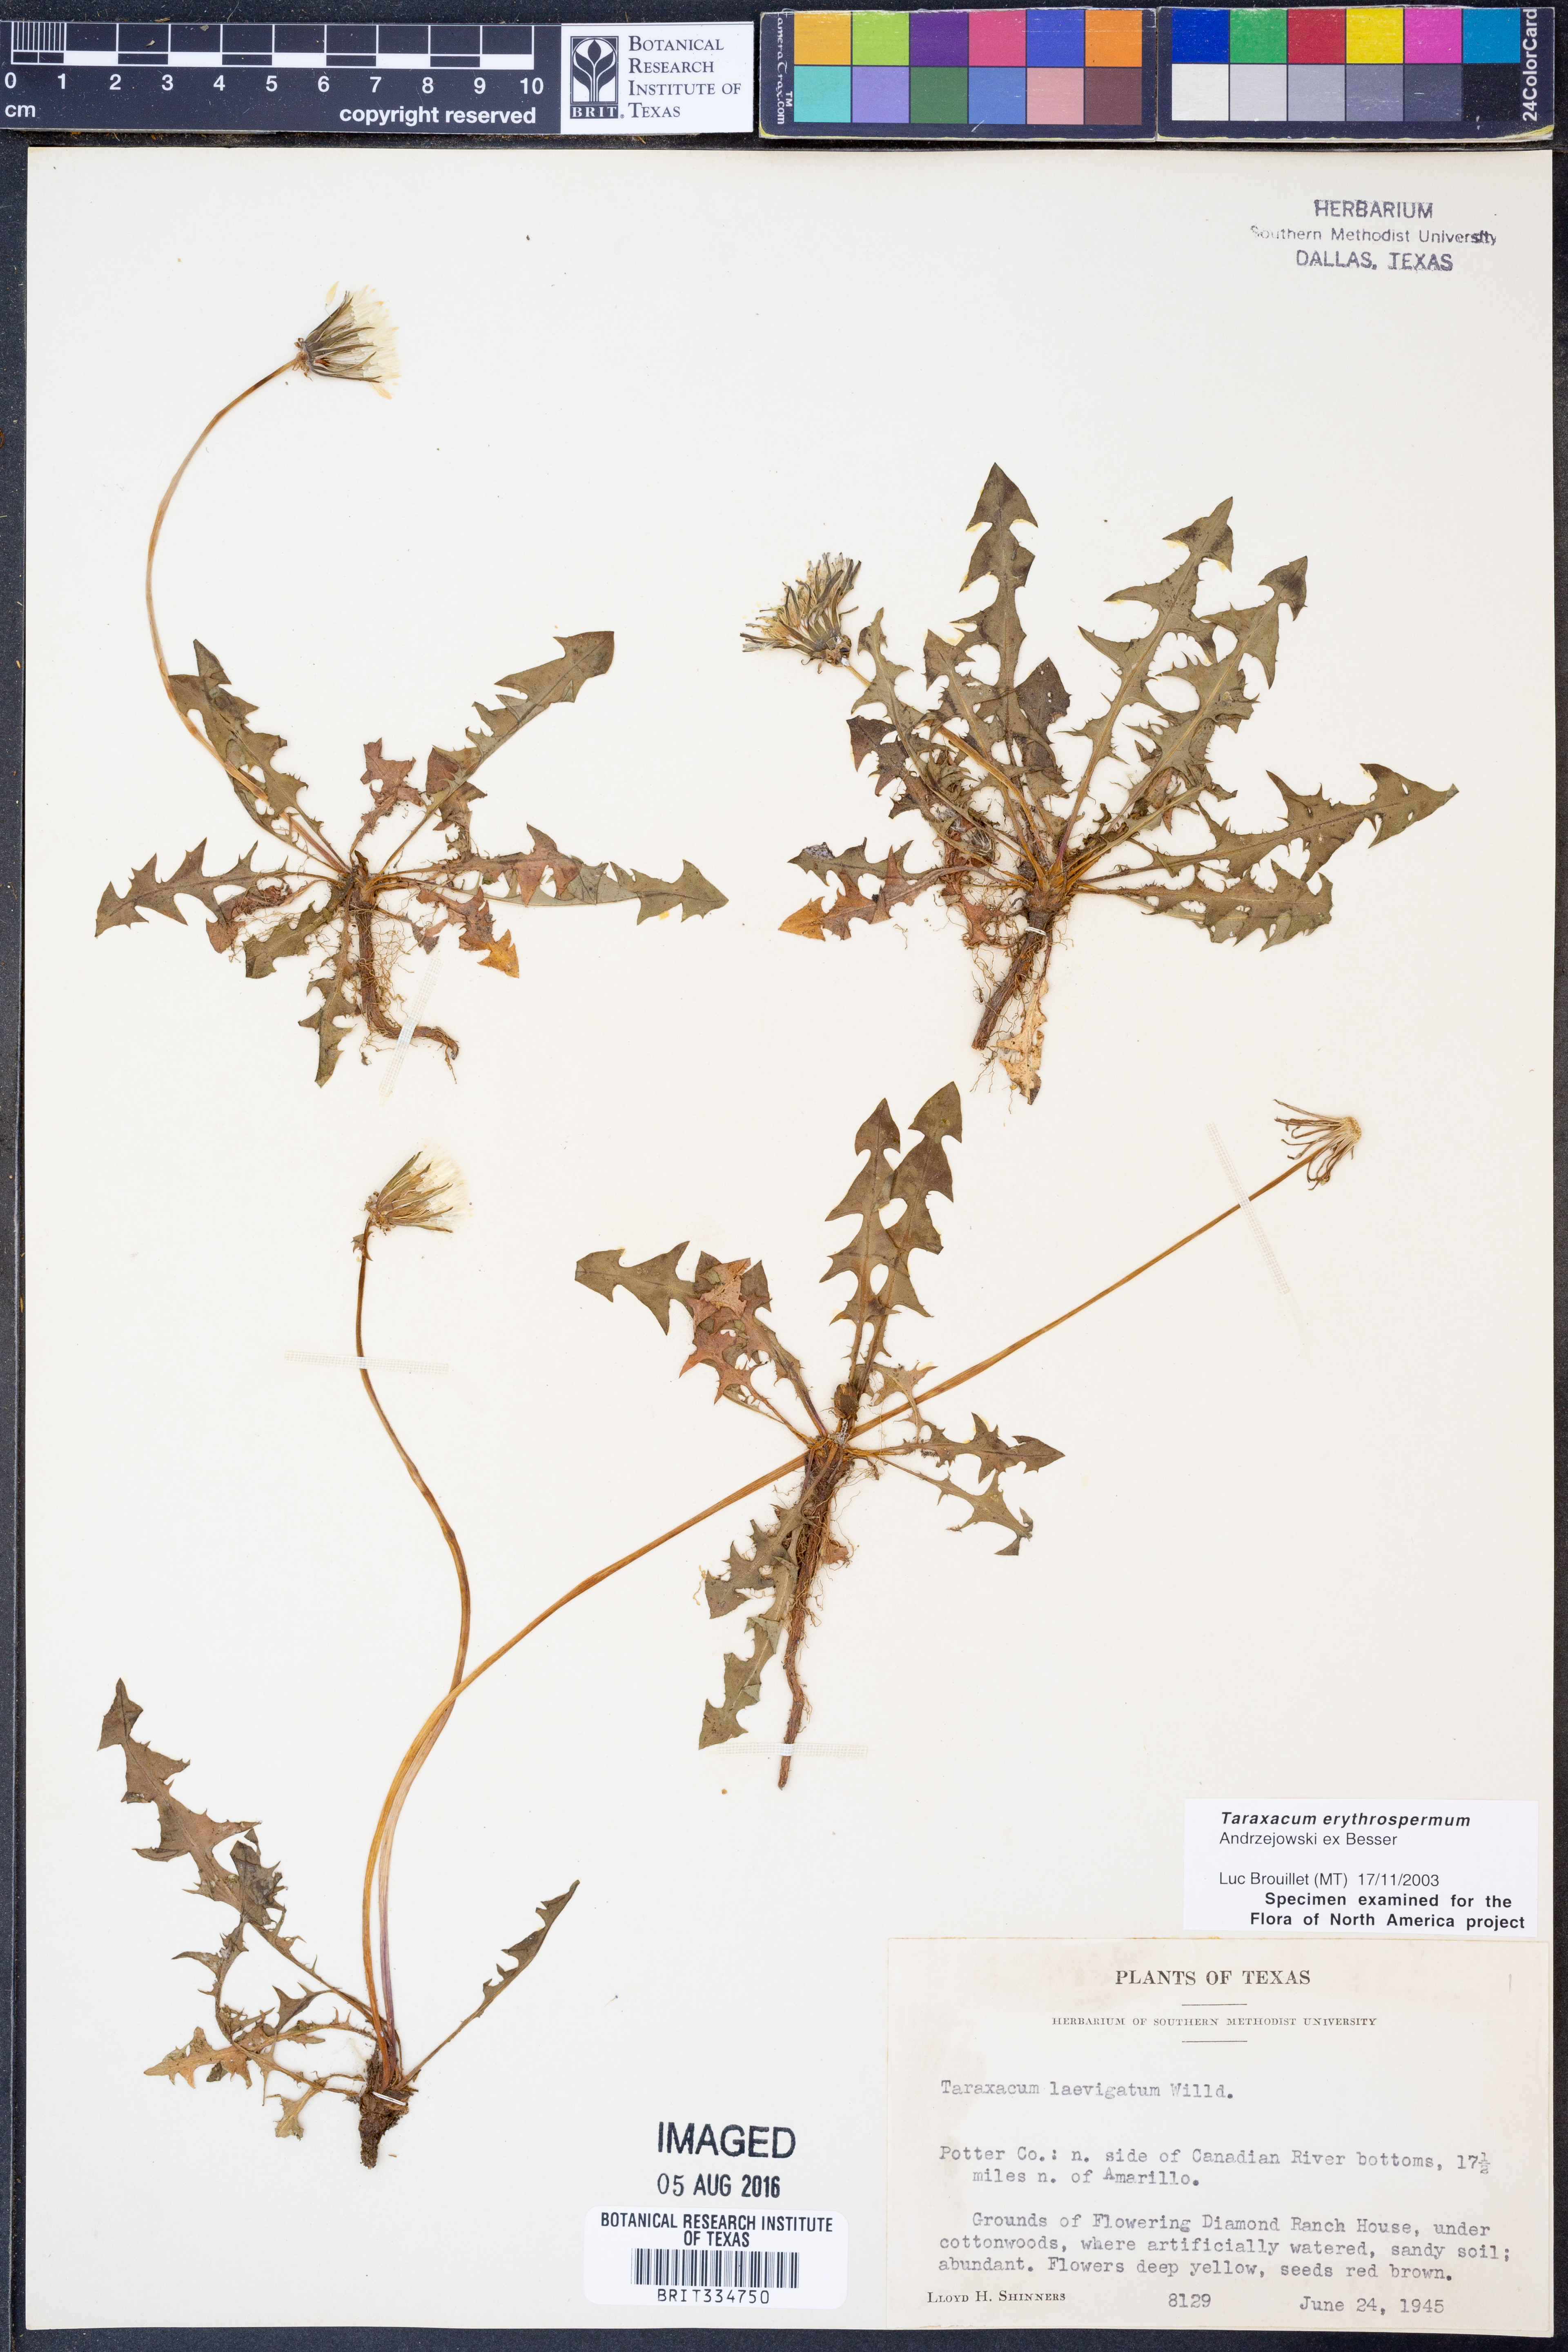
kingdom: Plantae
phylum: Tracheophyta
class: Magnoliopsida
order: Asterales
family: Asteraceae
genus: Taraxacum
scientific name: Taraxacum erythrospermum
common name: Rock dandelion
